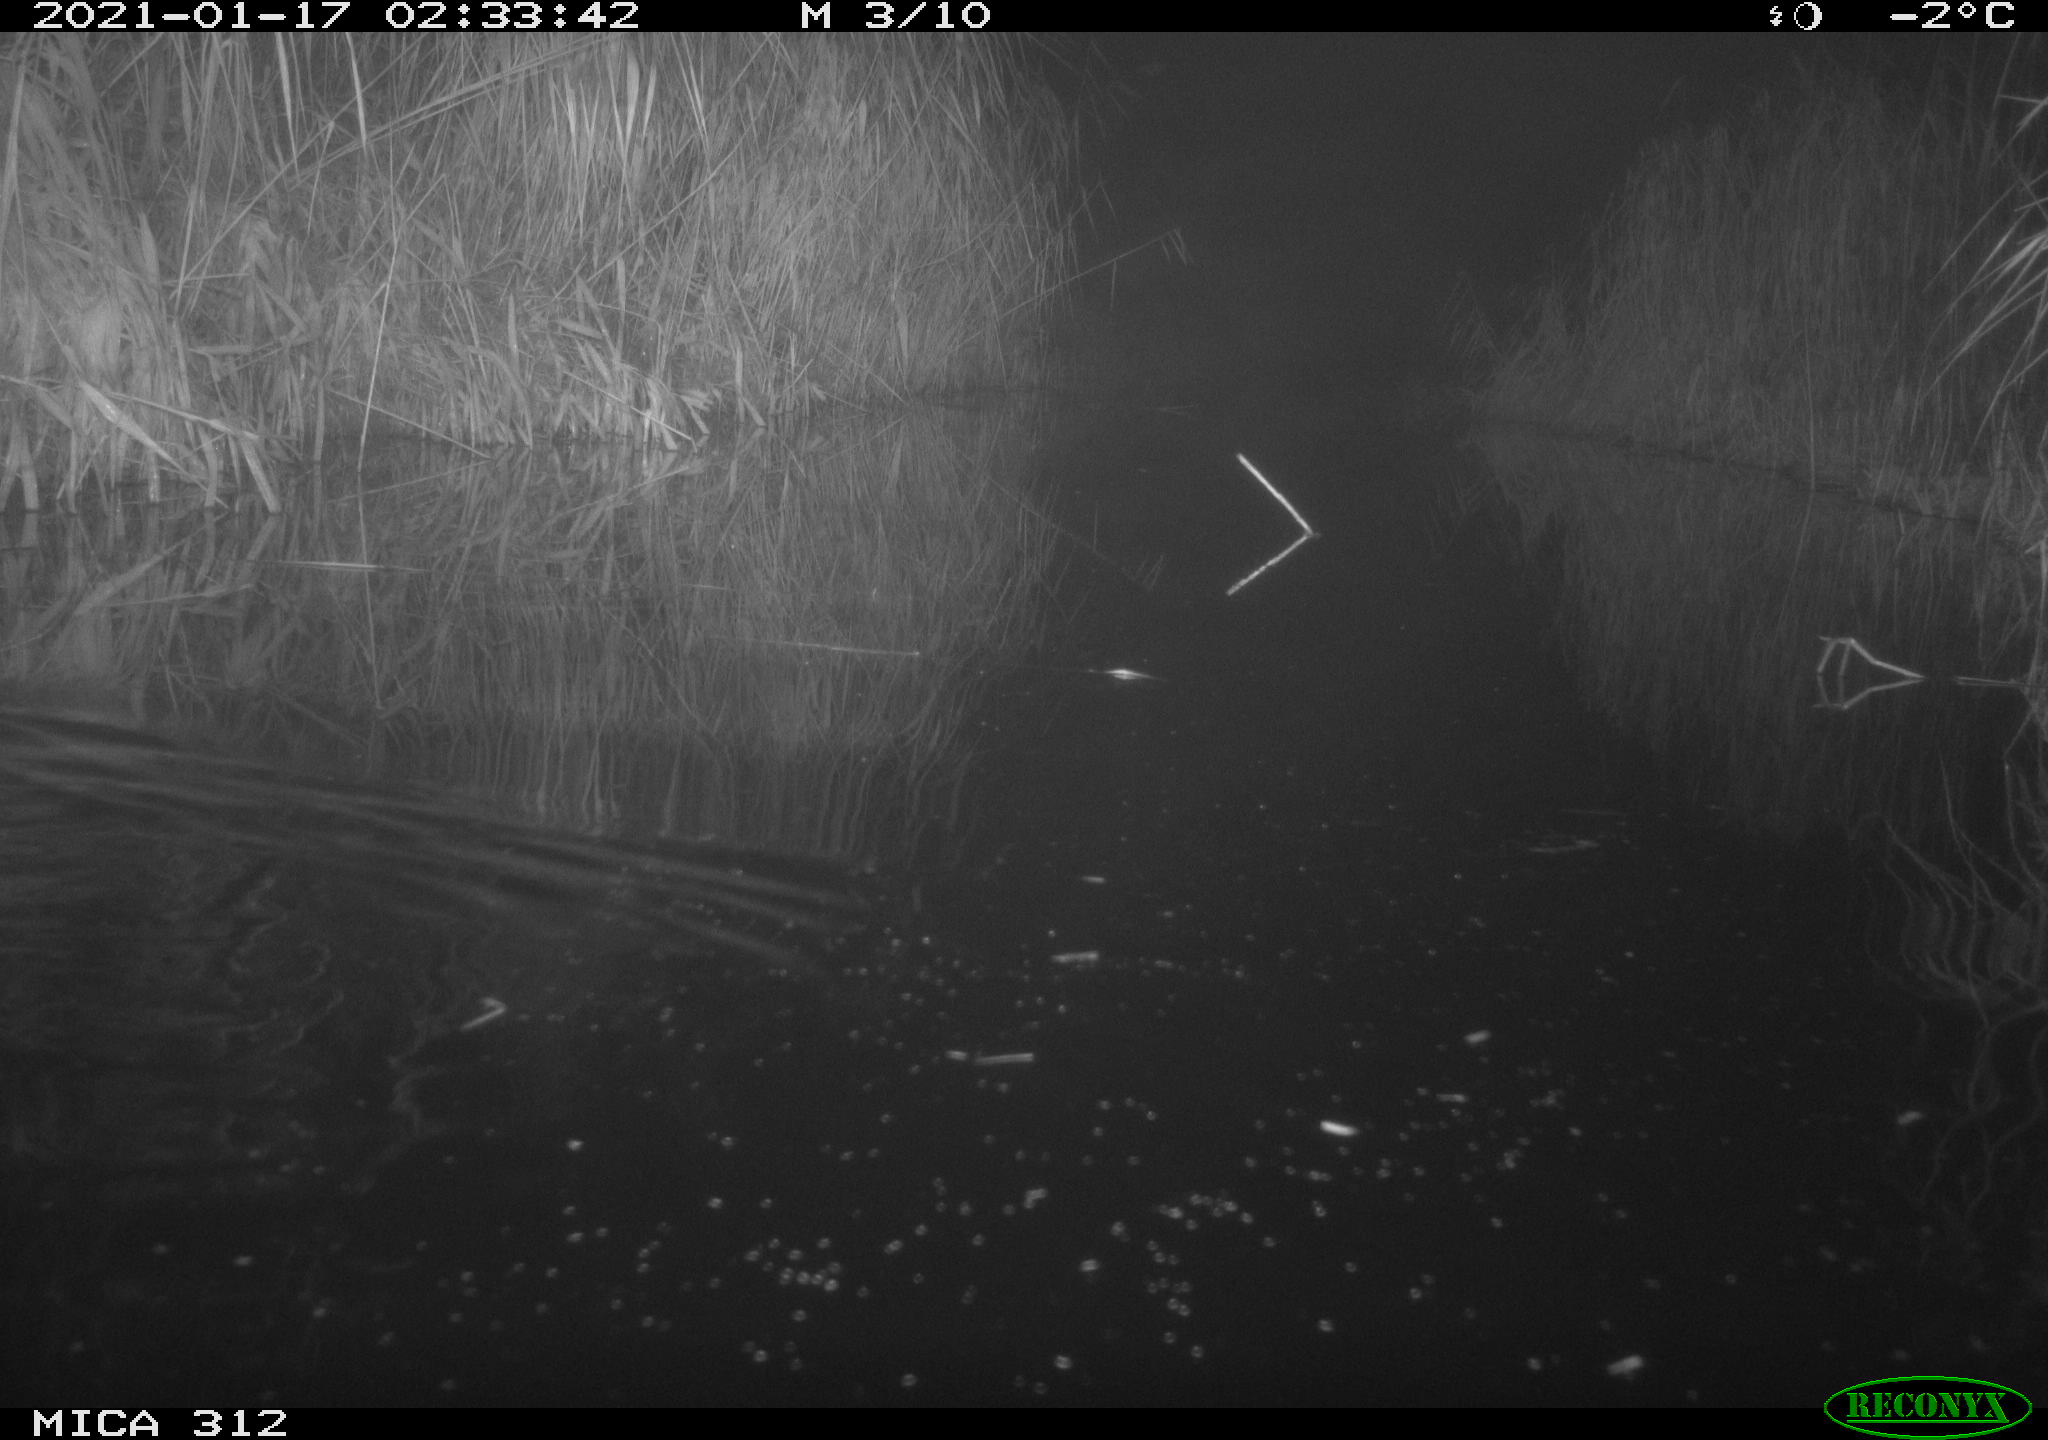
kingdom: Animalia
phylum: Chordata
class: Mammalia
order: Rodentia
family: Muridae
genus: Rattus
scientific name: Rattus norvegicus
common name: Brown rat
